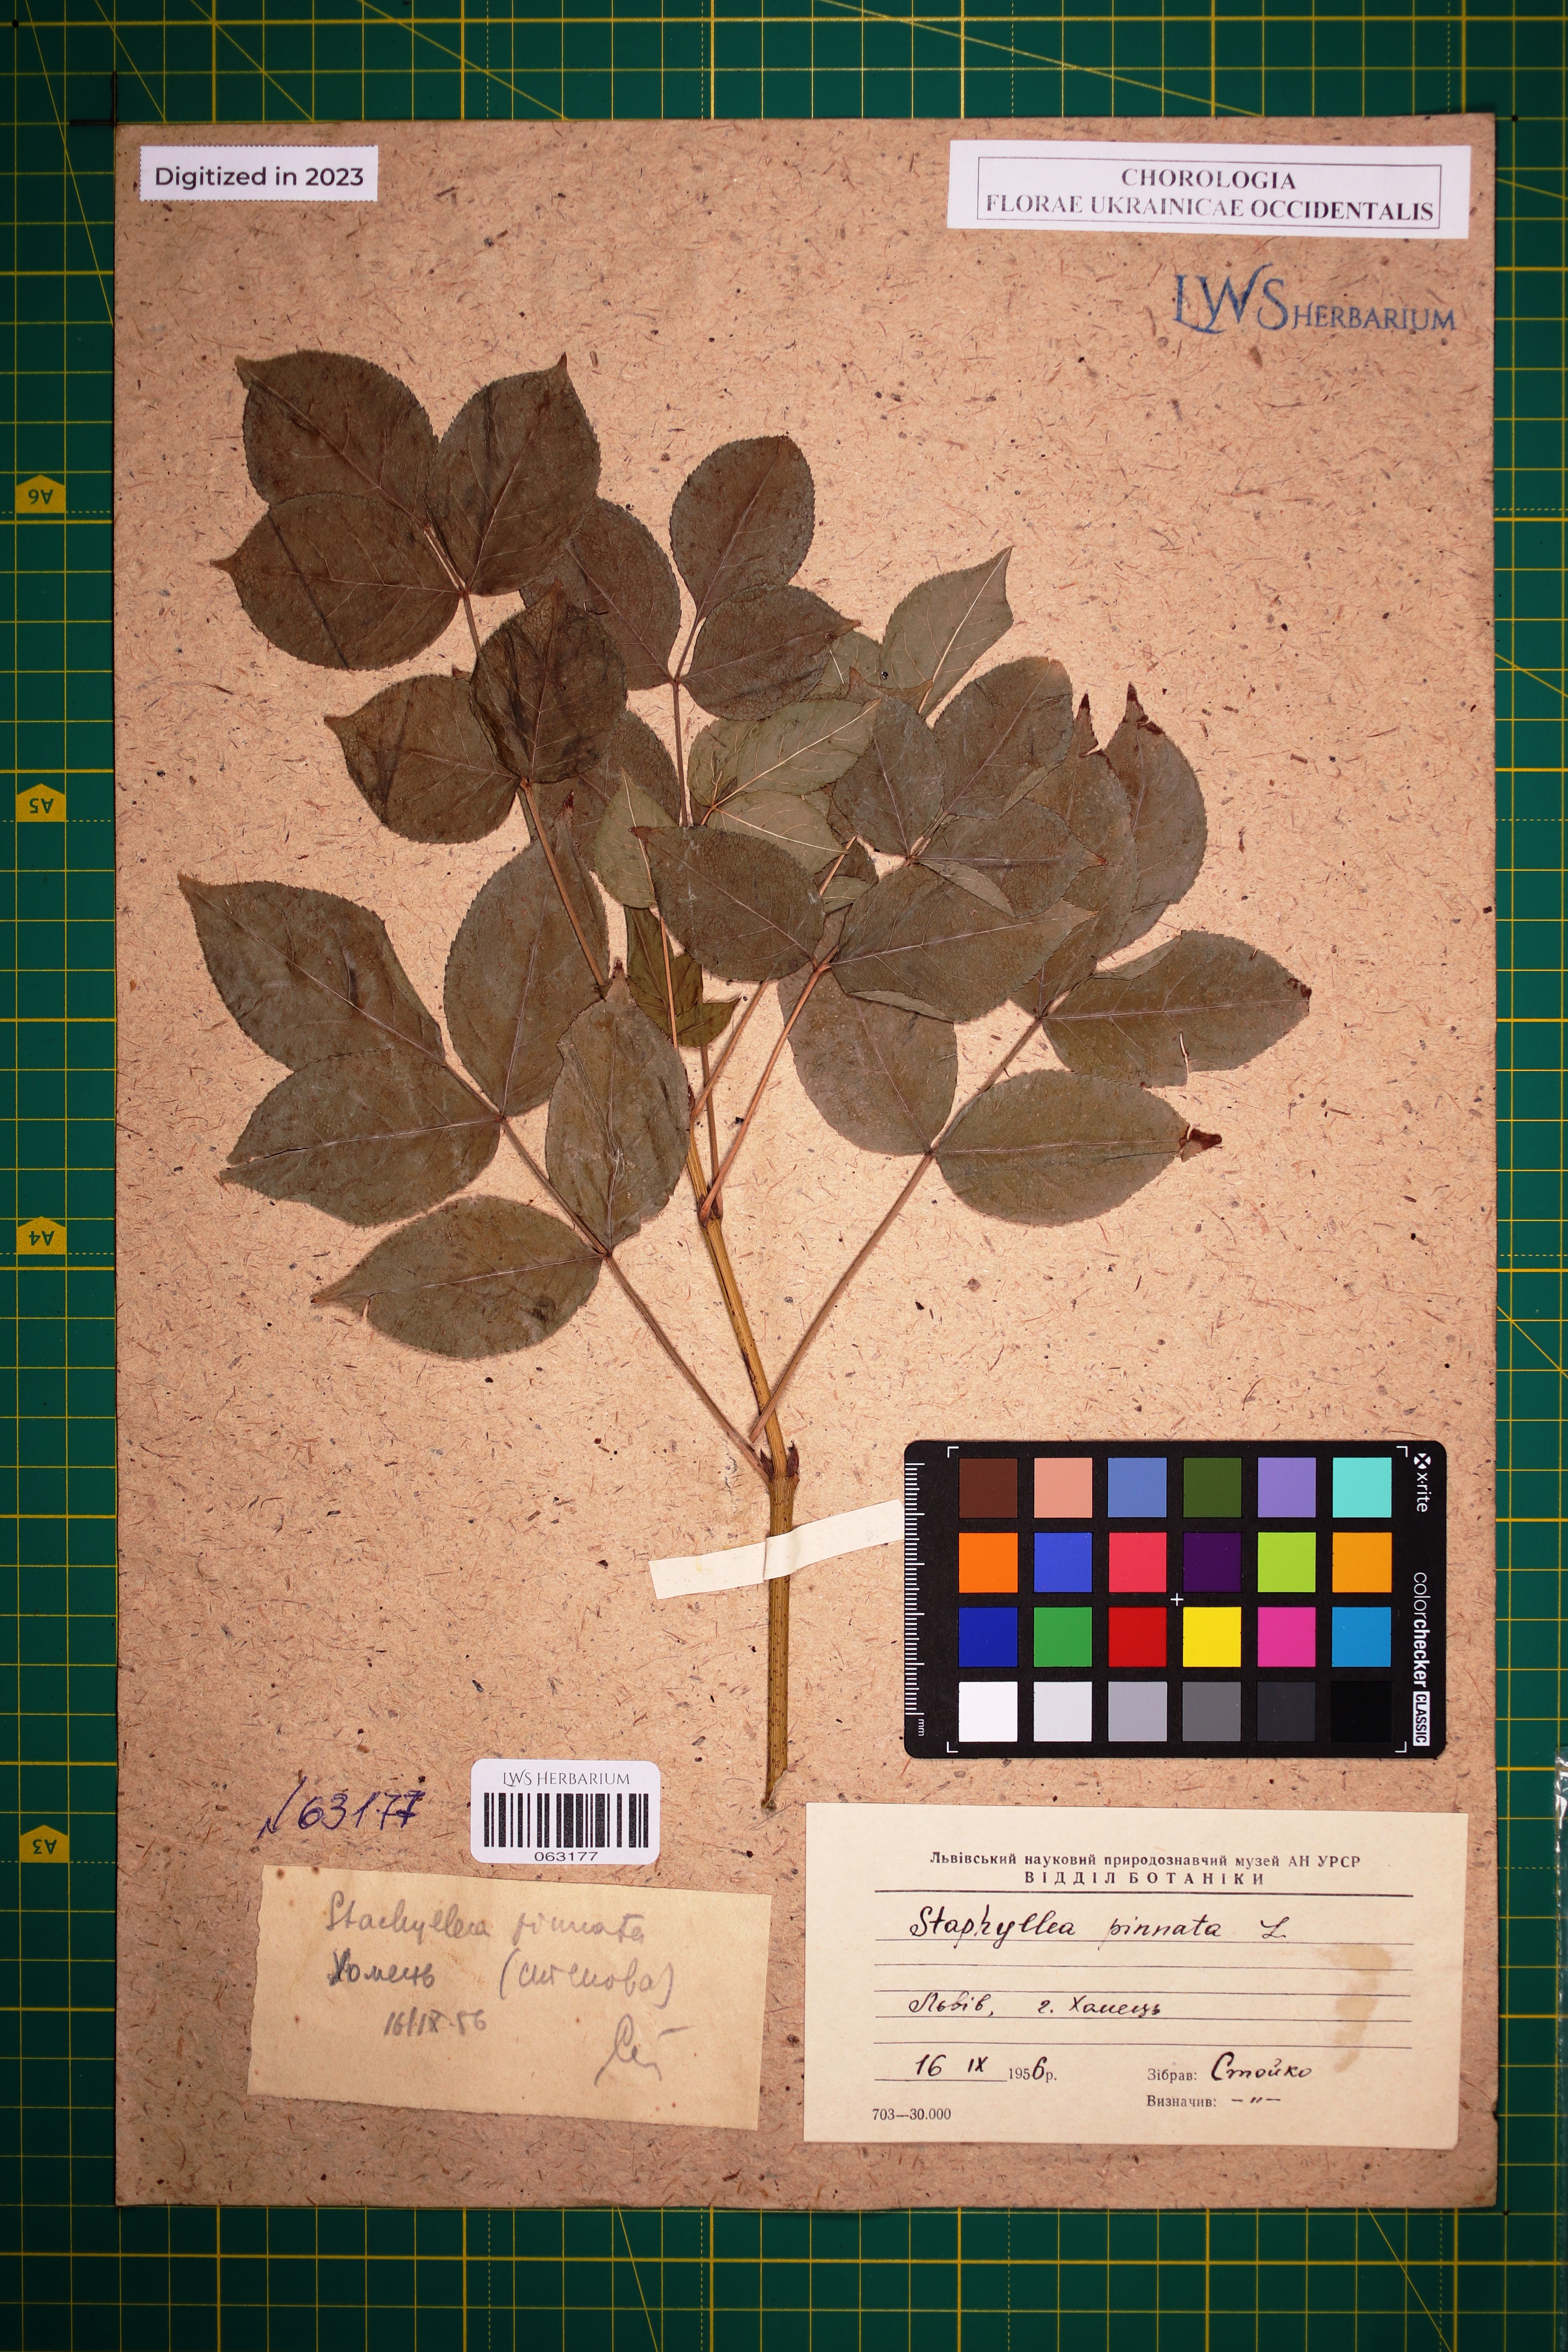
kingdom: Plantae
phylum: Tracheophyta
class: Magnoliopsida
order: Crossosomatales
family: Staphyleaceae
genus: Staphylea
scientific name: Staphylea pinnata
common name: Bladdernut
